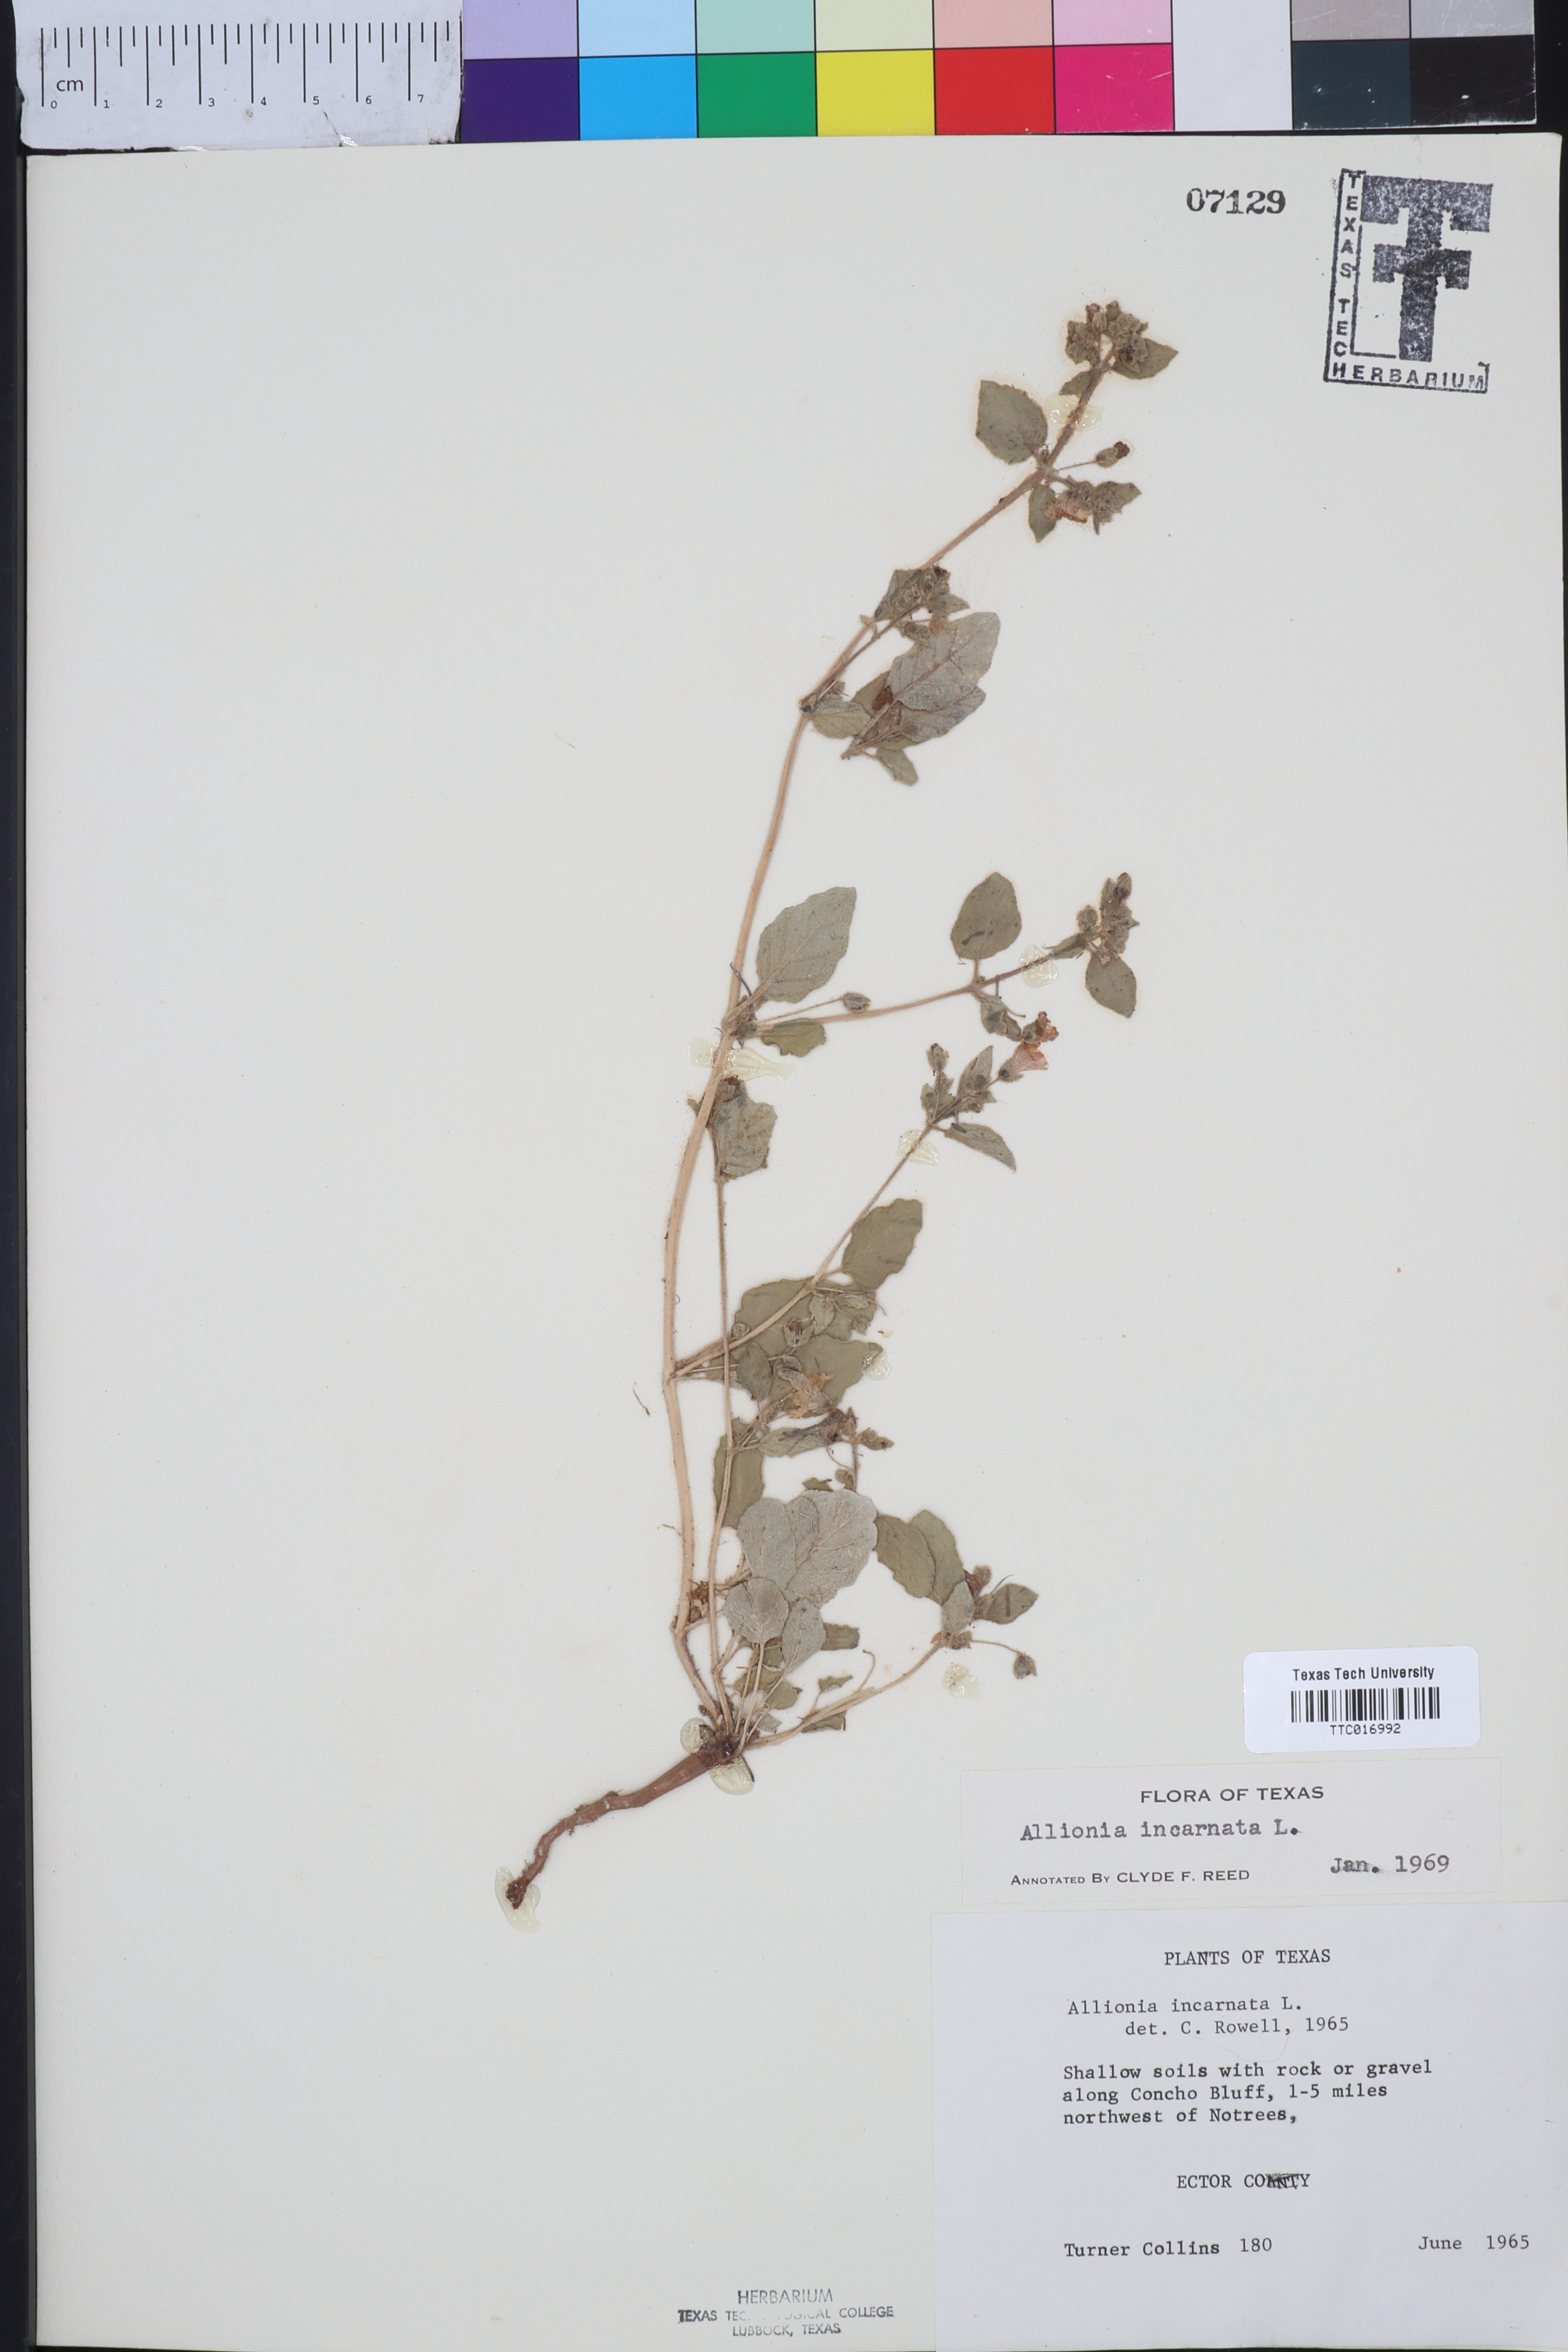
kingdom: Plantae
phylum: Tracheophyta
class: Magnoliopsida
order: Caryophyllales
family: Nyctaginaceae
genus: Allionia
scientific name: Allionia incarnata
